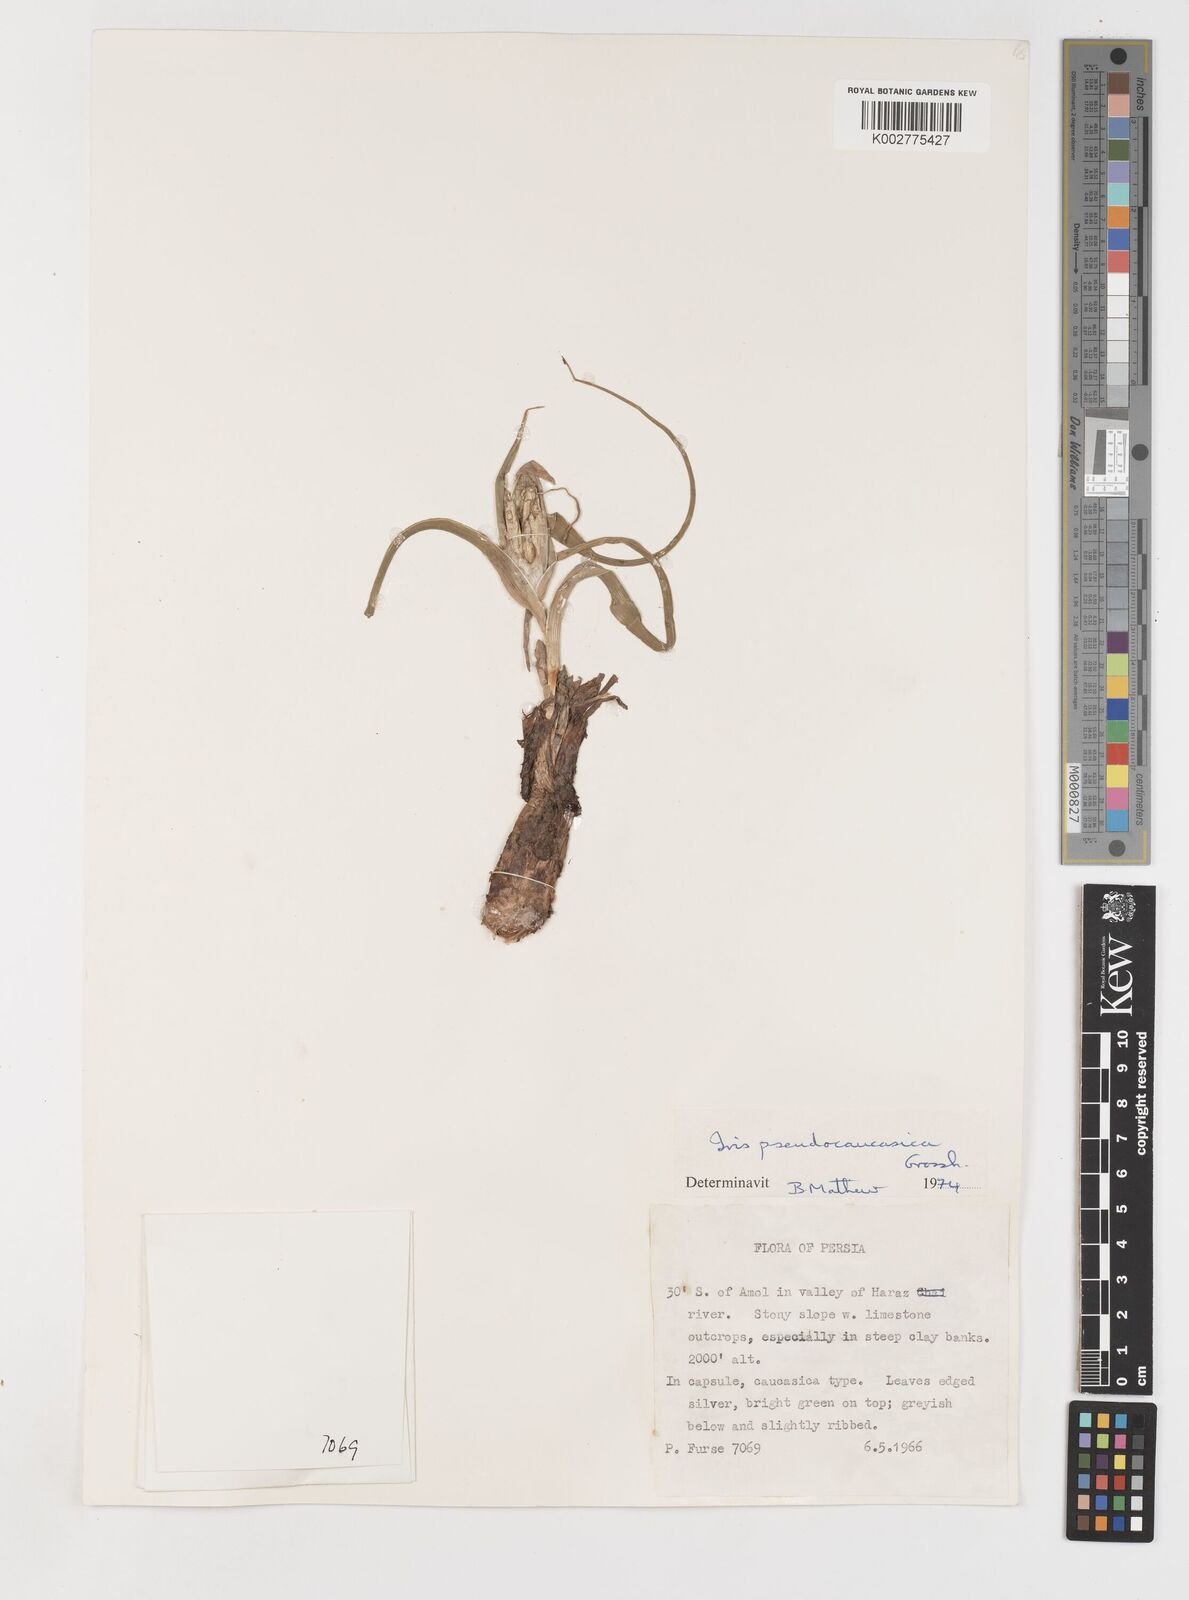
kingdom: Plantae
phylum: Tracheophyta
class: Liliopsida
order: Asparagales
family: Iridaceae
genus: Iris
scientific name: Iris pseudocaucasica
